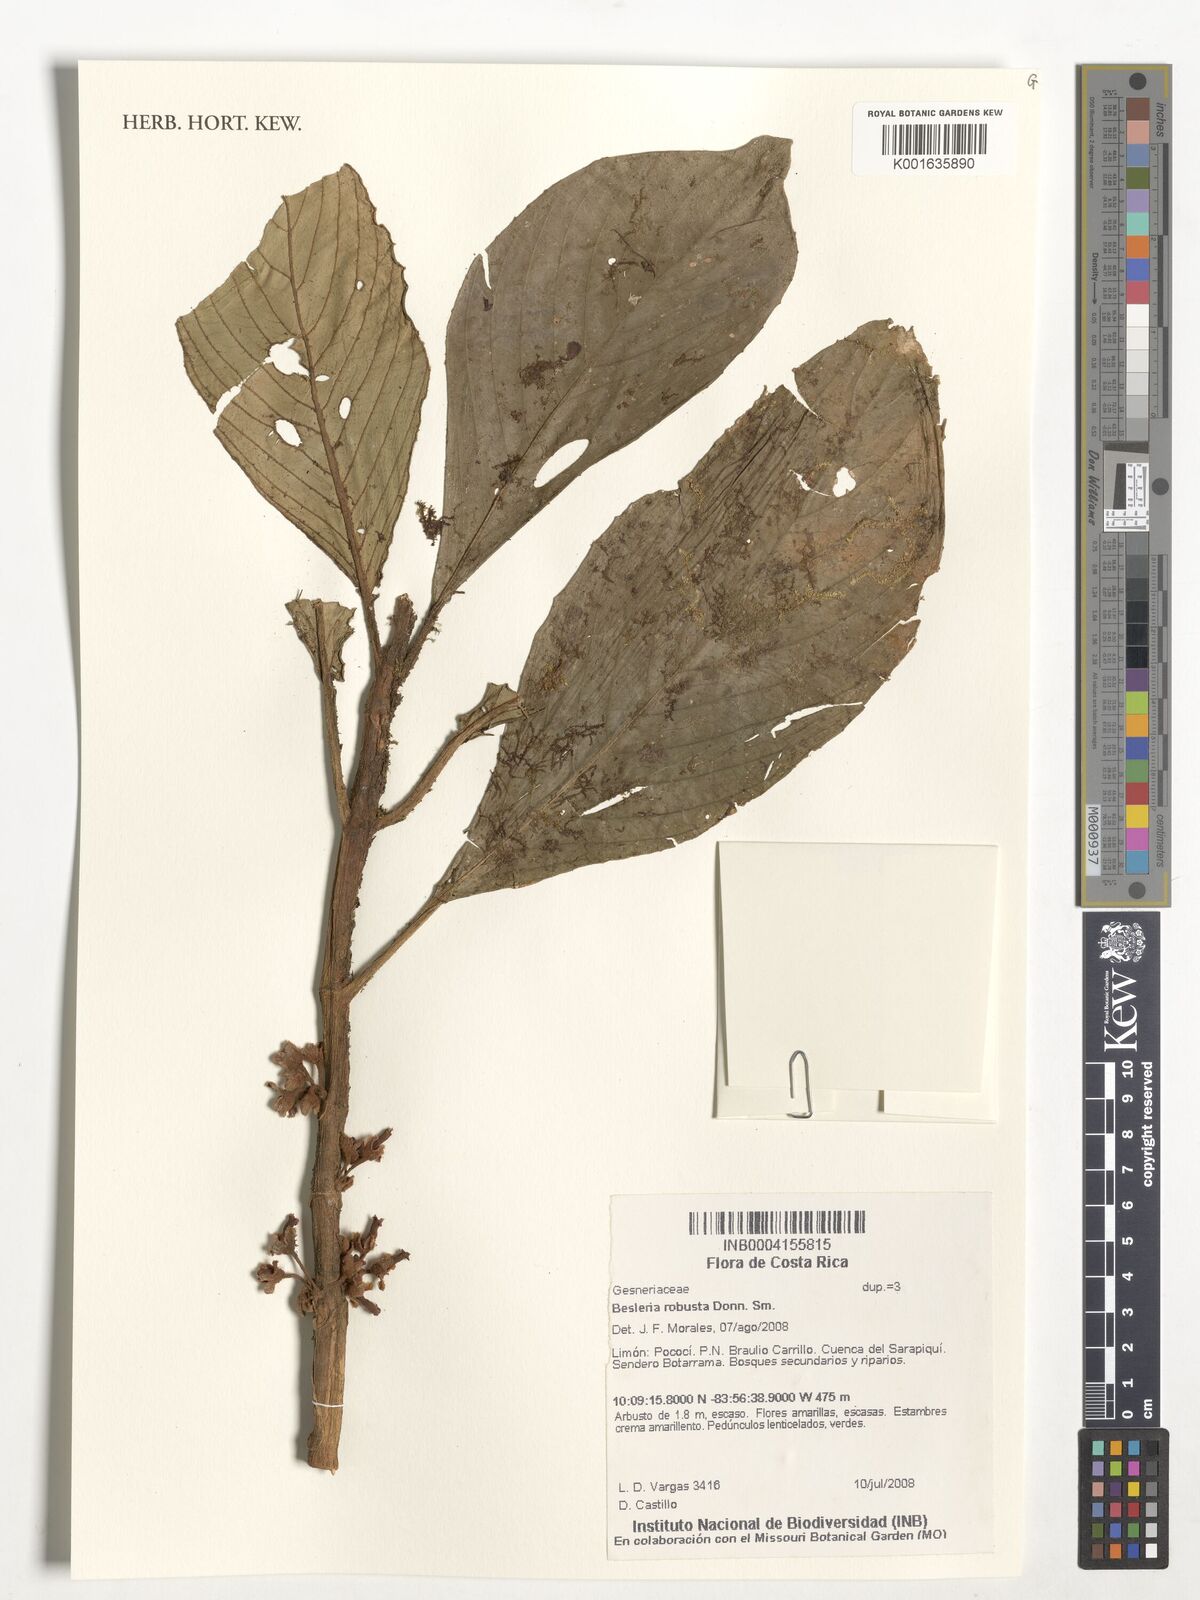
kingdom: Plantae
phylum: Tracheophyta
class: Magnoliopsida
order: Lamiales
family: Gesneriaceae
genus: Besleria
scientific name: Besleria robusta
